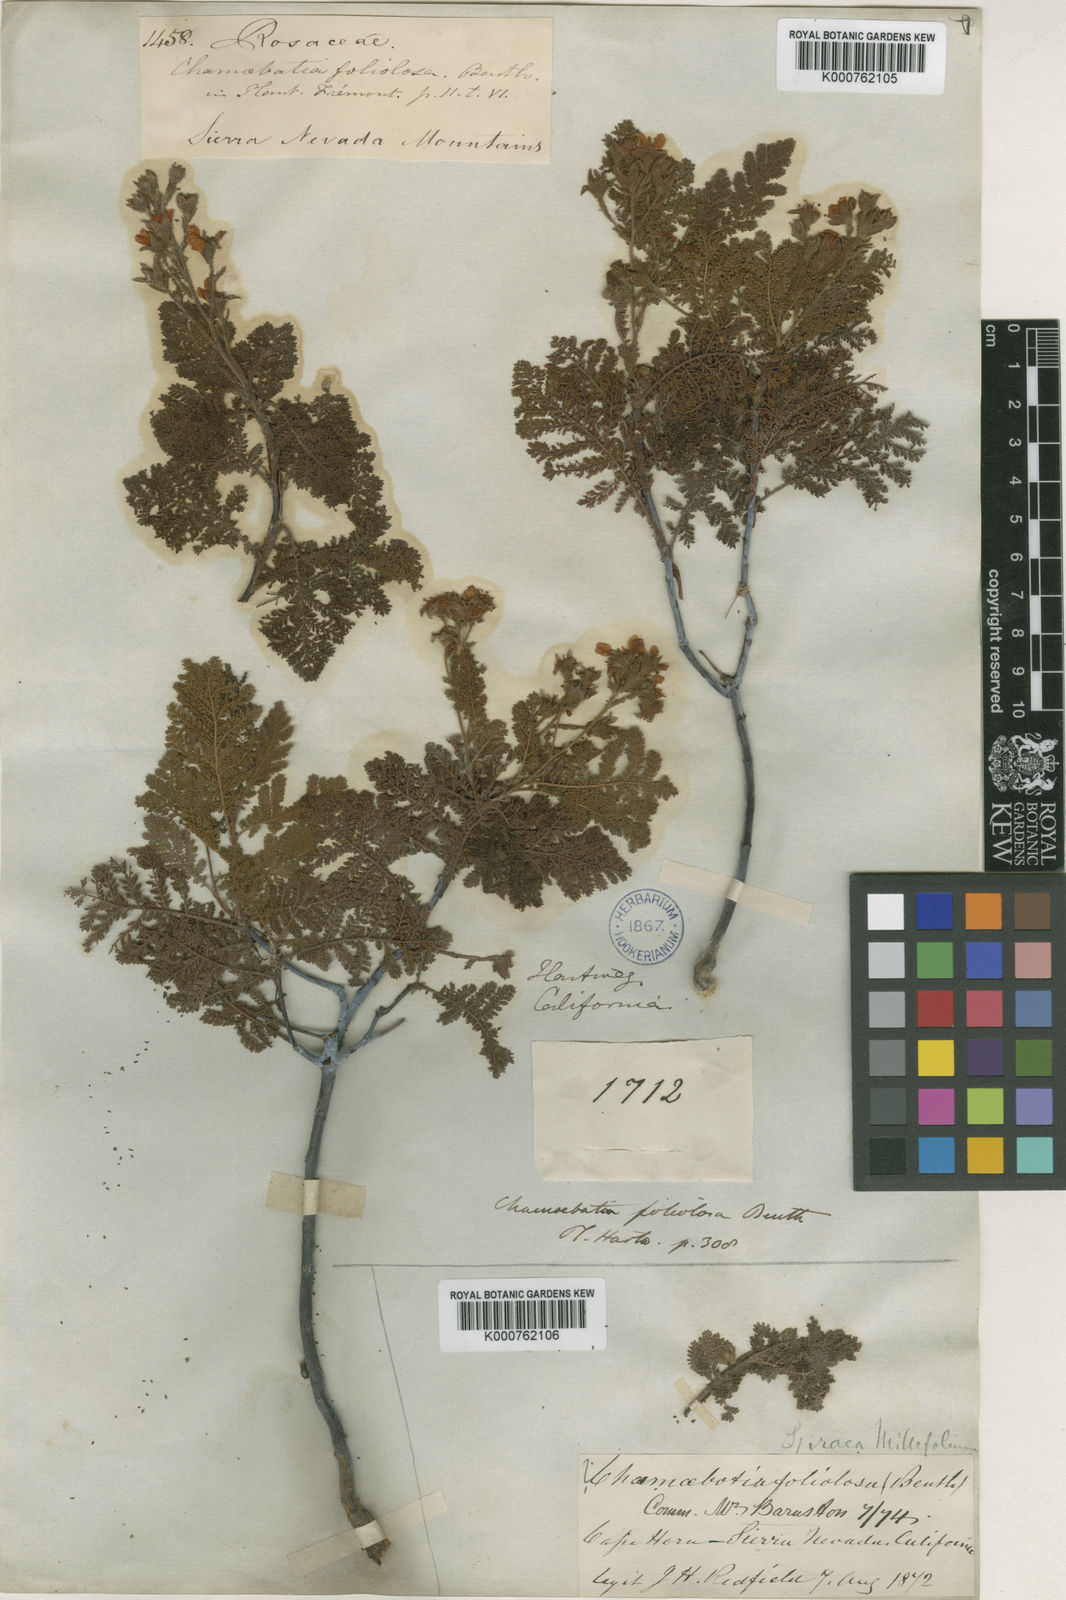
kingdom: Plantae
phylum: Tracheophyta
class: Magnoliopsida
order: Rosales
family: Rosaceae
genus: Chamaebatia
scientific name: Chamaebatia foliolosa
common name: Mountain misery
